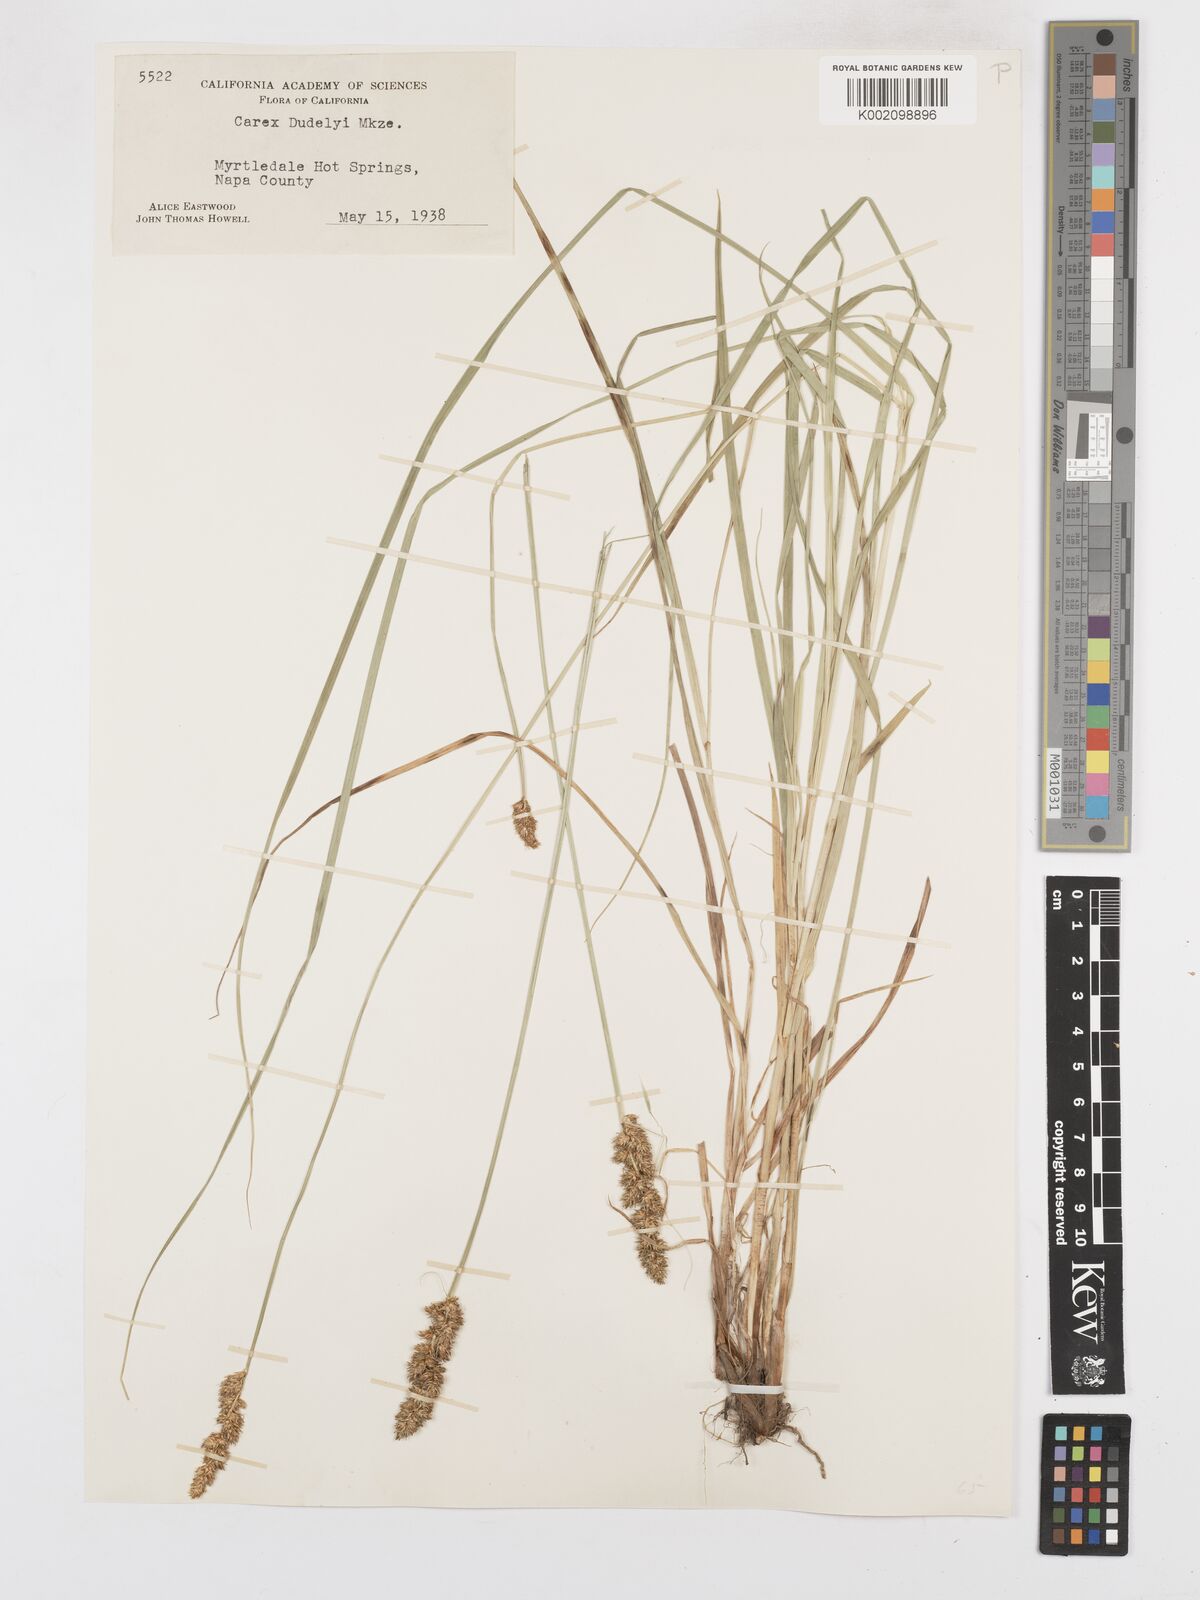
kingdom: Plantae
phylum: Tracheophyta
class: Liliopsida
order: Poales
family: Cyperaceae
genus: Carex
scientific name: Carex densa
